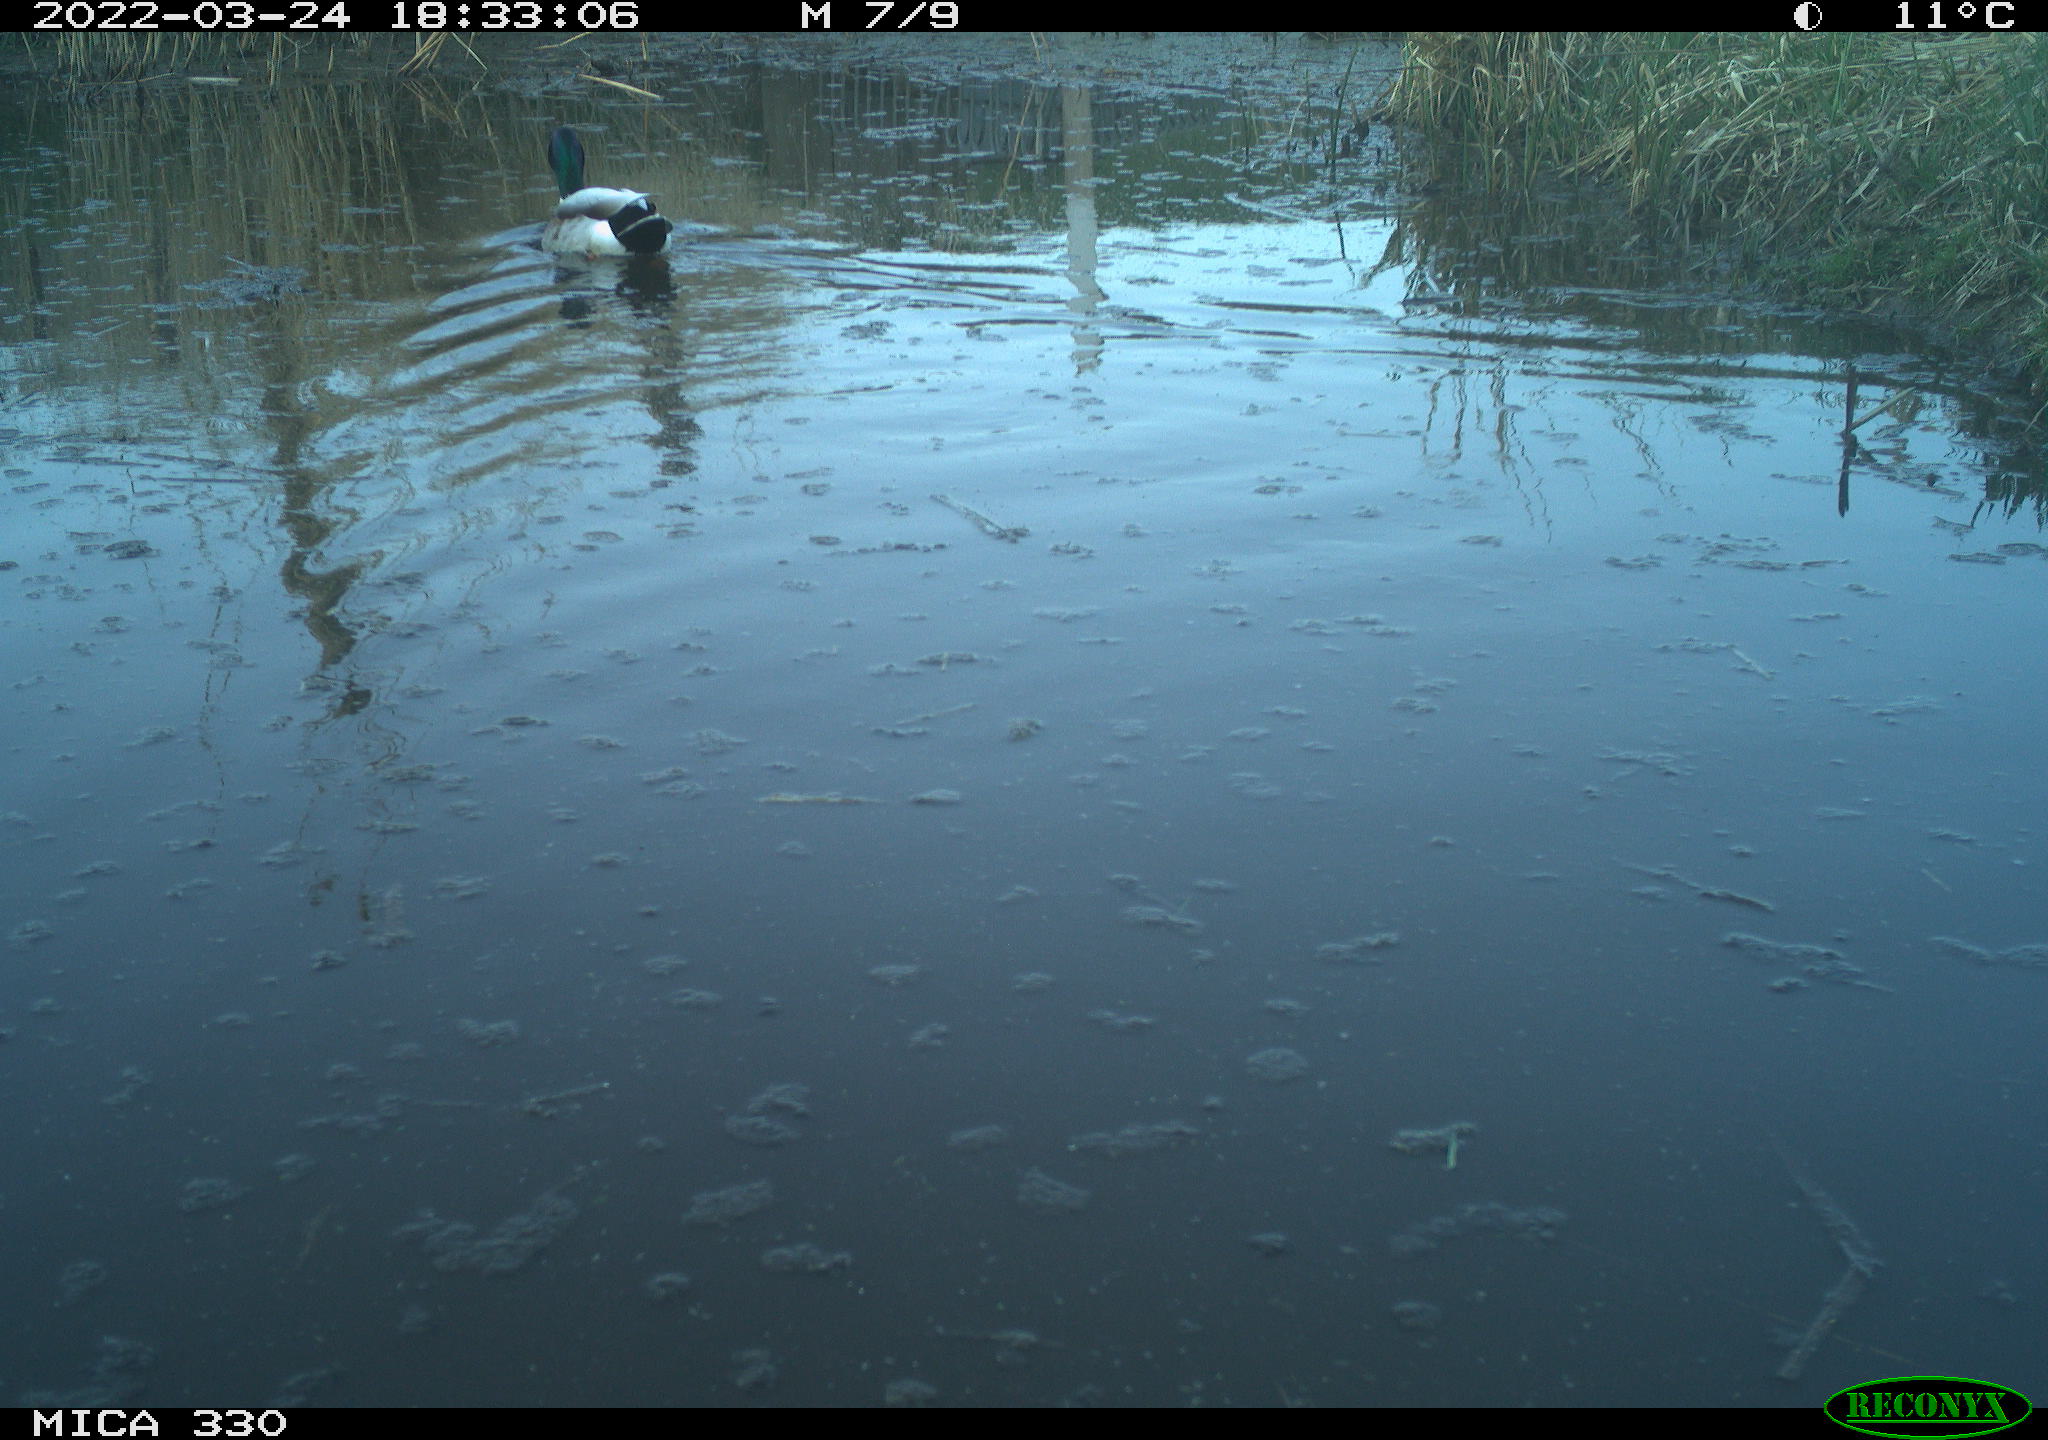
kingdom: Animalia
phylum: Chordata
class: Aves
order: Anseriformes
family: Anatidae
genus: Anas
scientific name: Anas platyrhynchos
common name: Mallard
